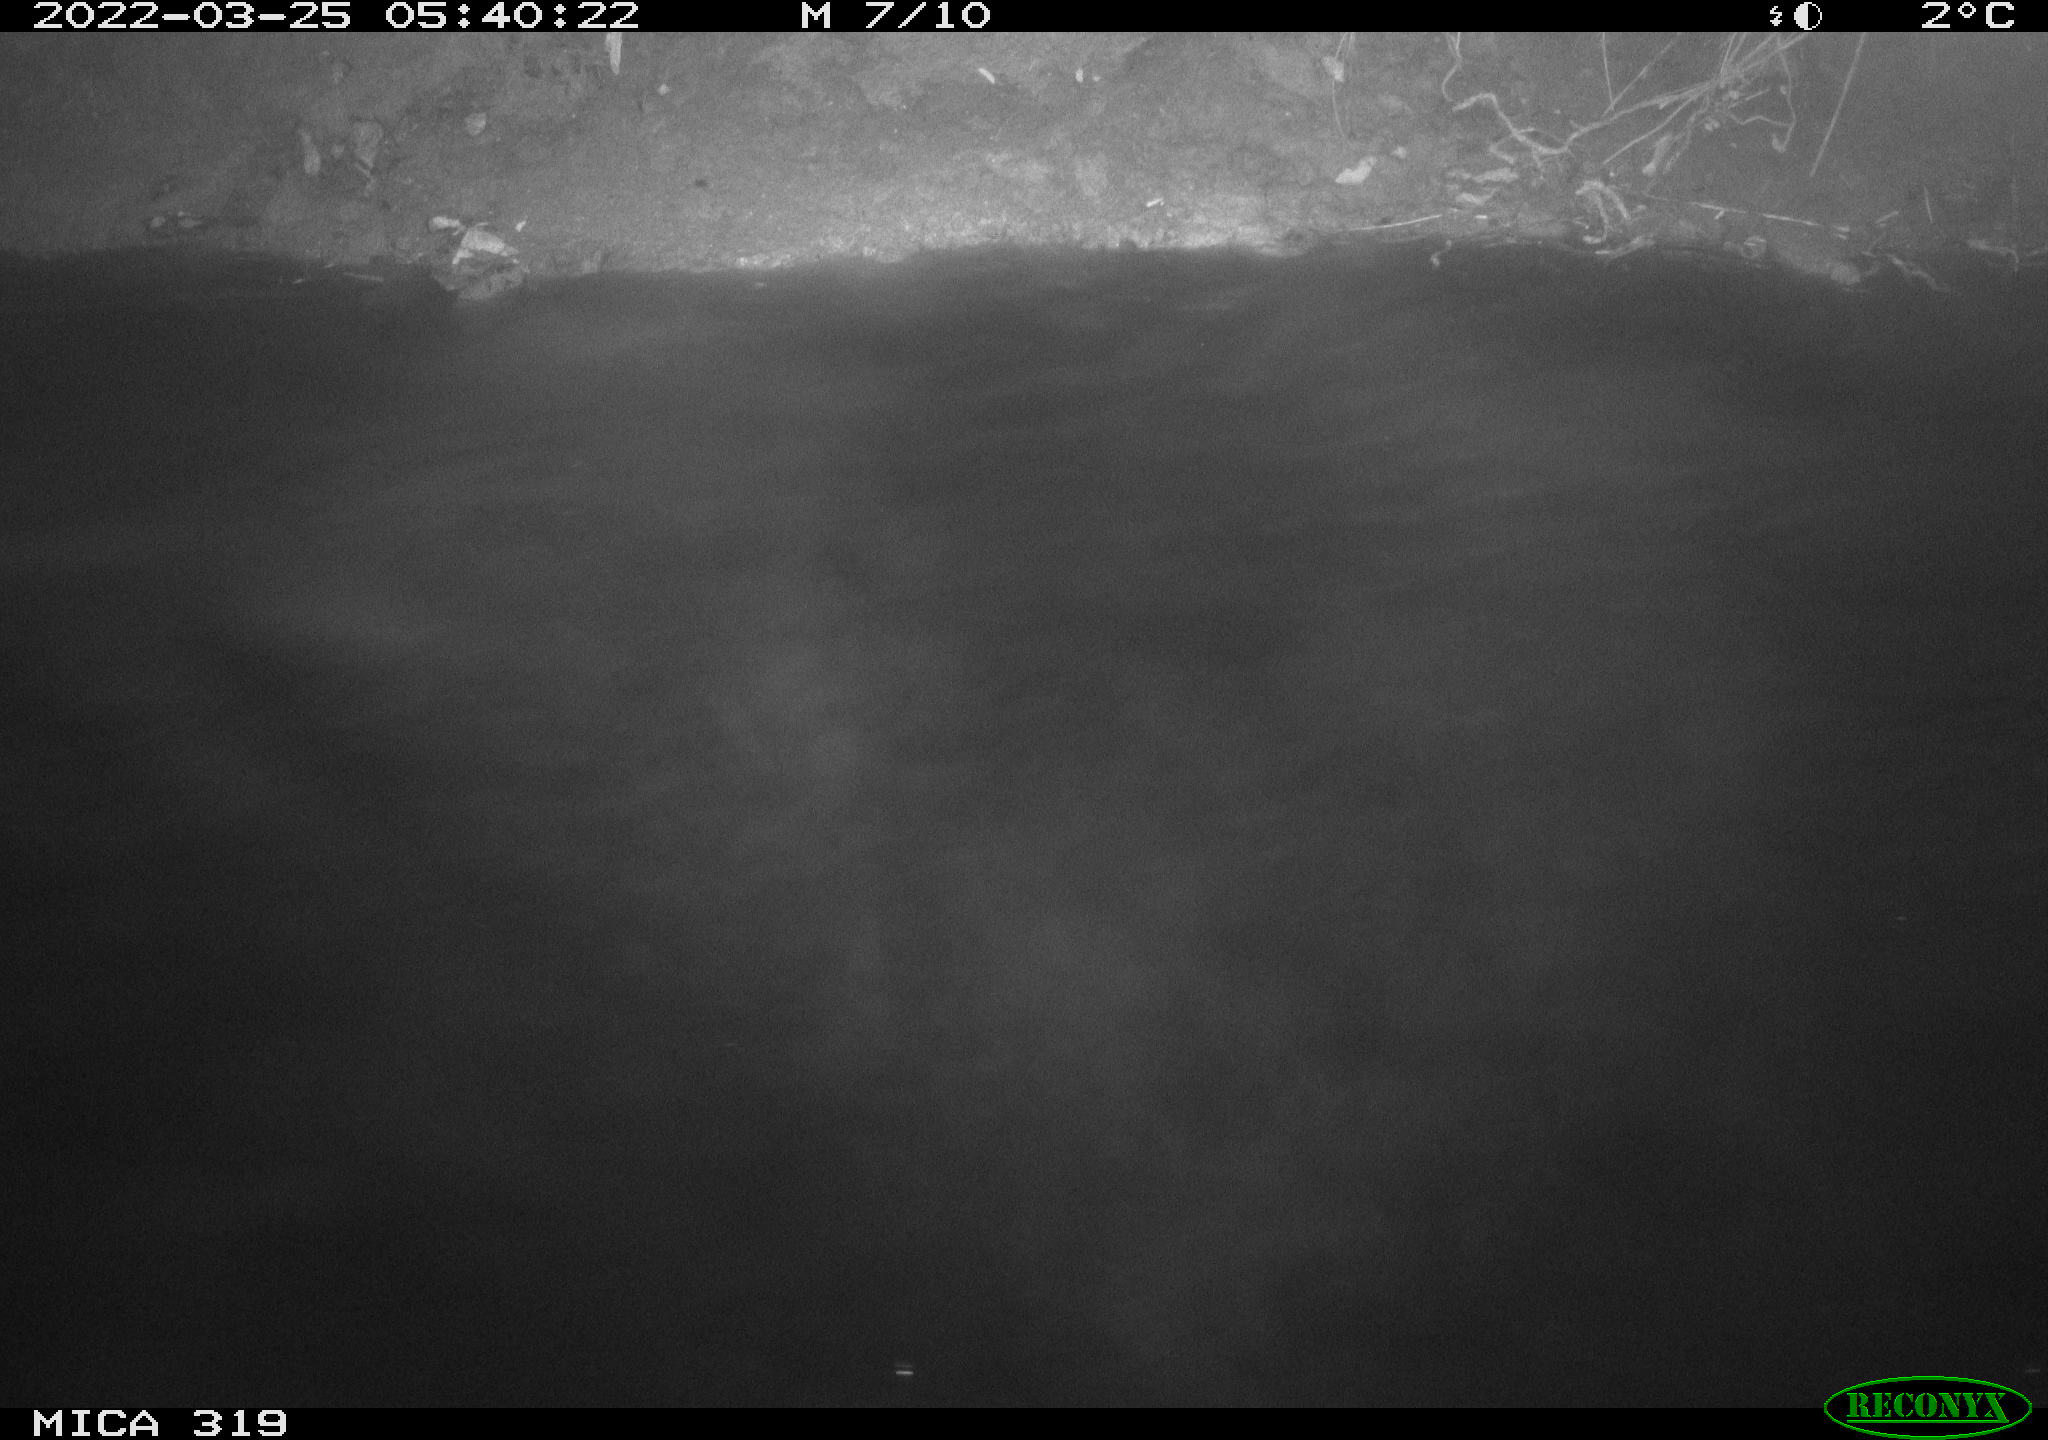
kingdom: Animalia
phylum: Chordata
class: Aves
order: Anseriformes
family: Anatidae
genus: Anas
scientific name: Anas platyrhynchos
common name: Mallard
